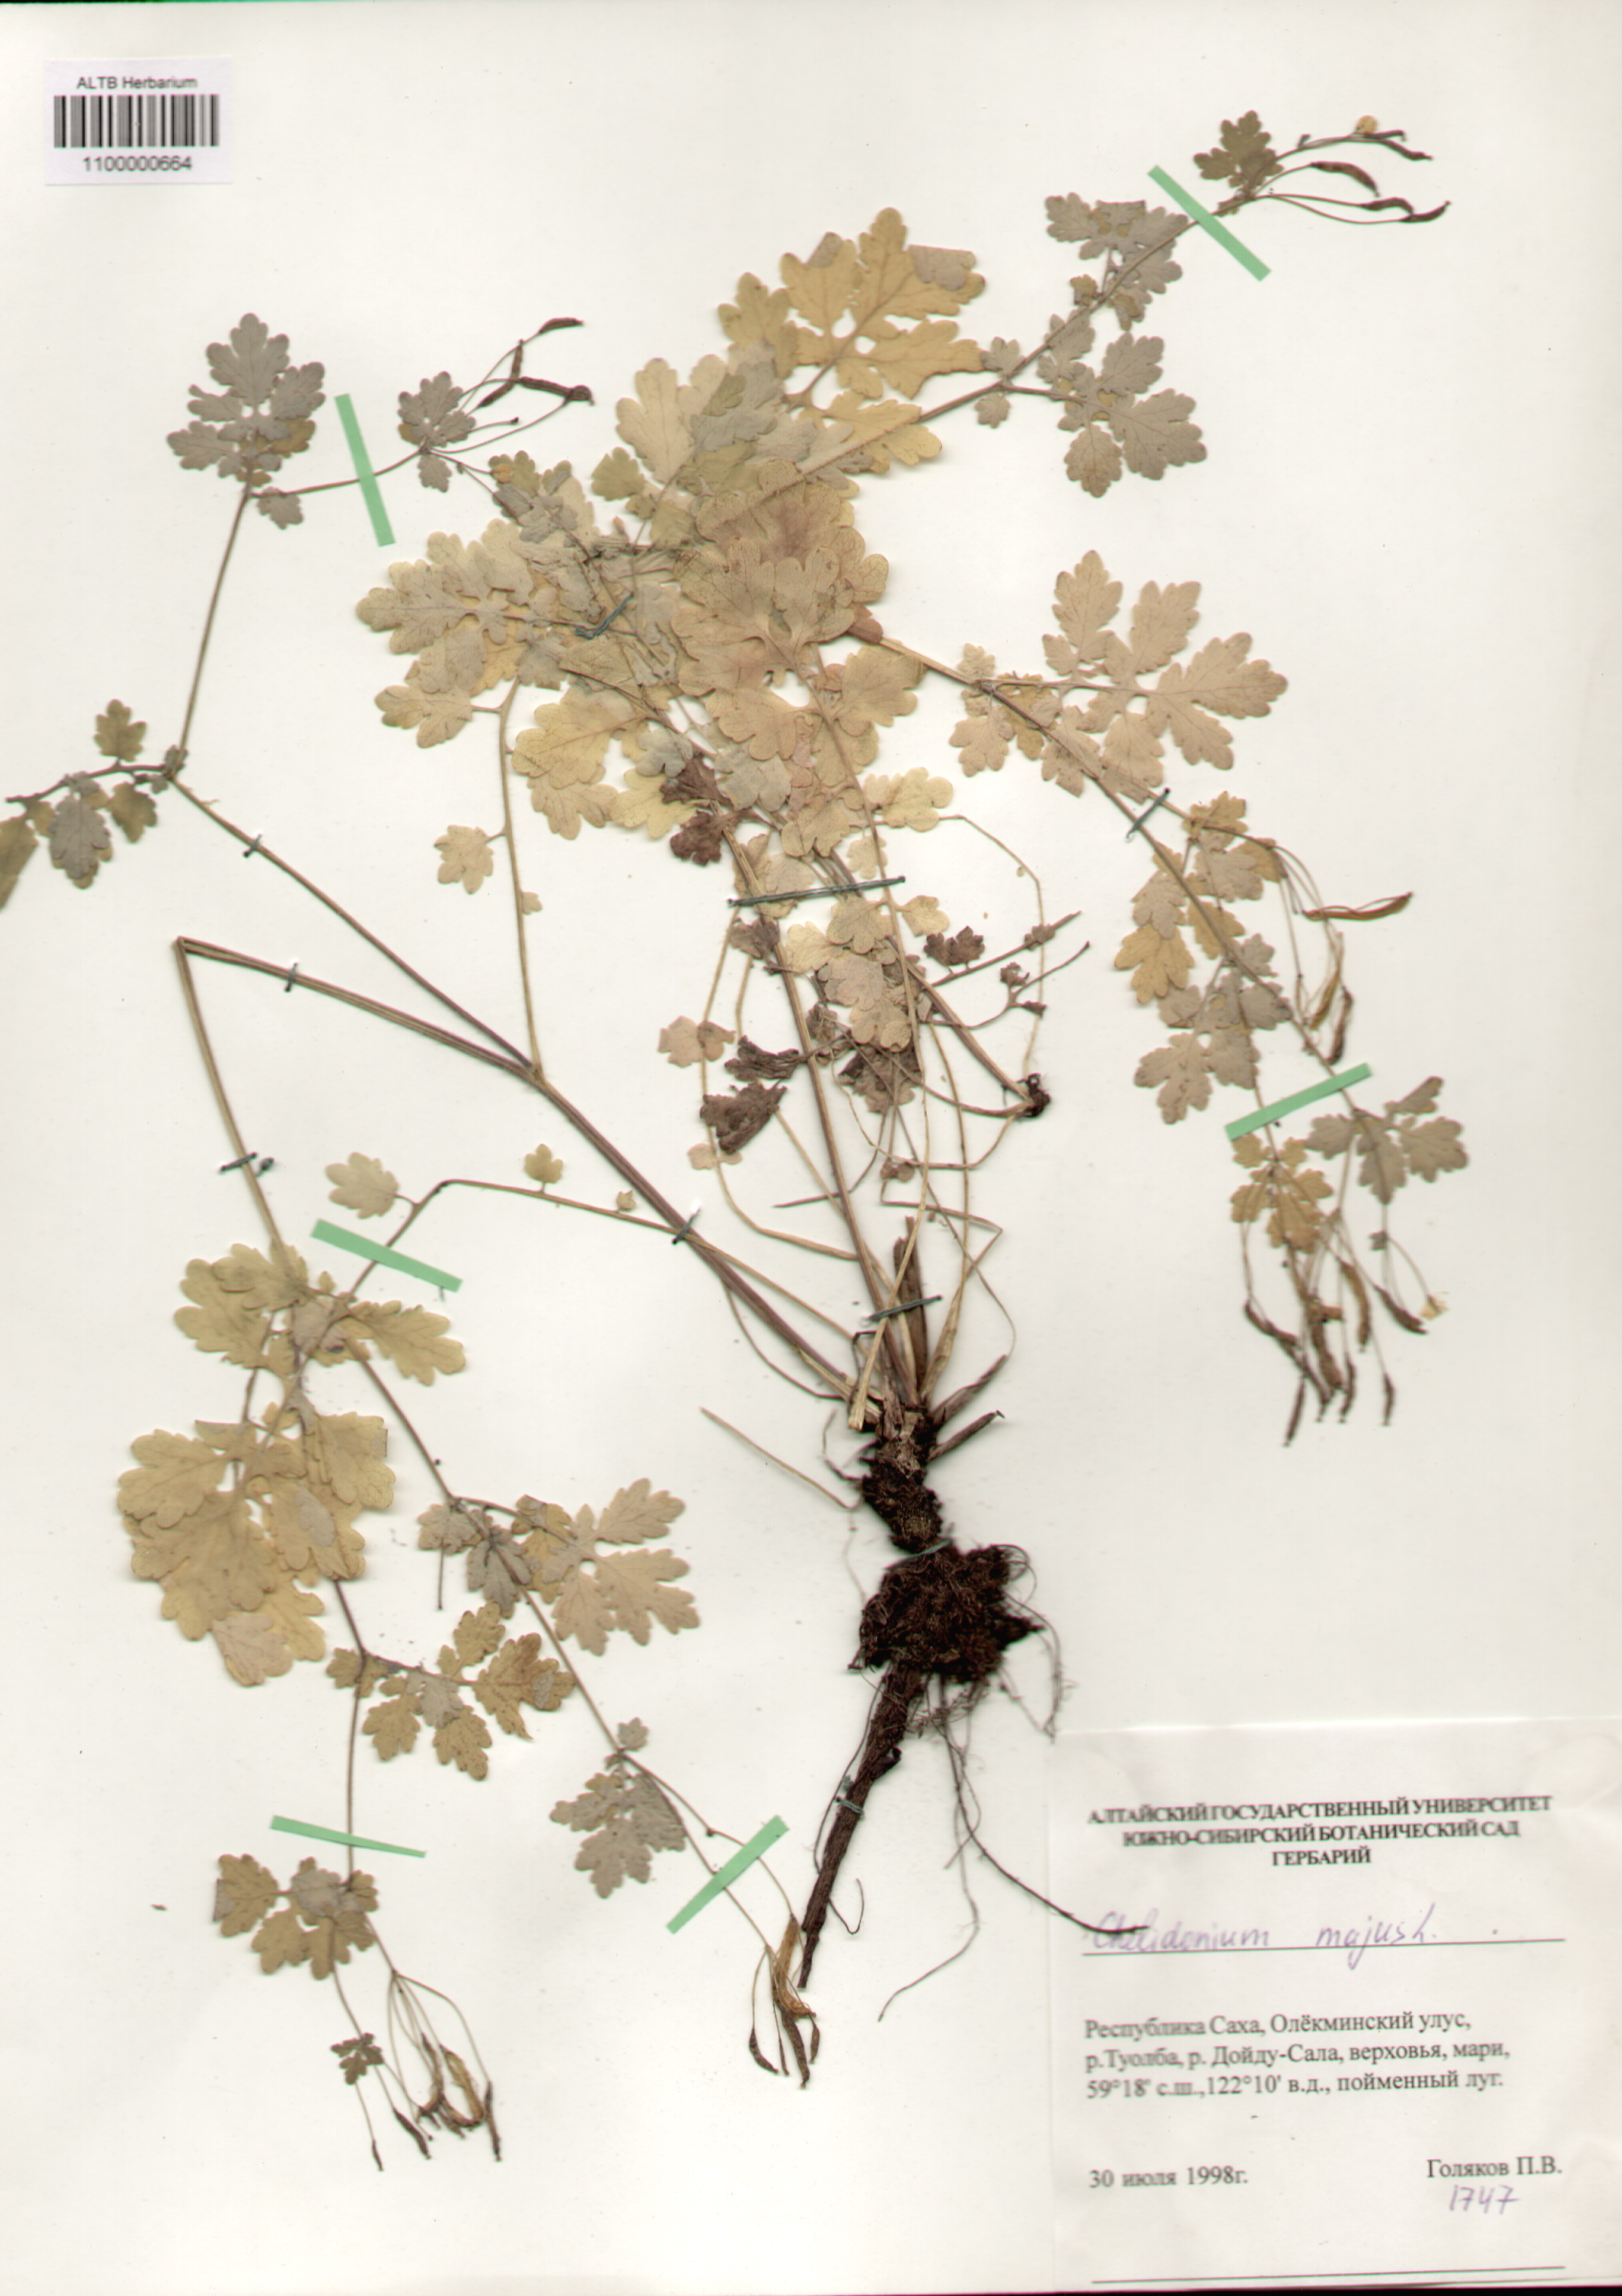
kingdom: Plantae
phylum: Tracheophyta
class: Magnoliopsida
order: Ranunculales
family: Papaveraceae
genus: Chelidonium
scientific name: Chelidonium majus
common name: Greater celandine
